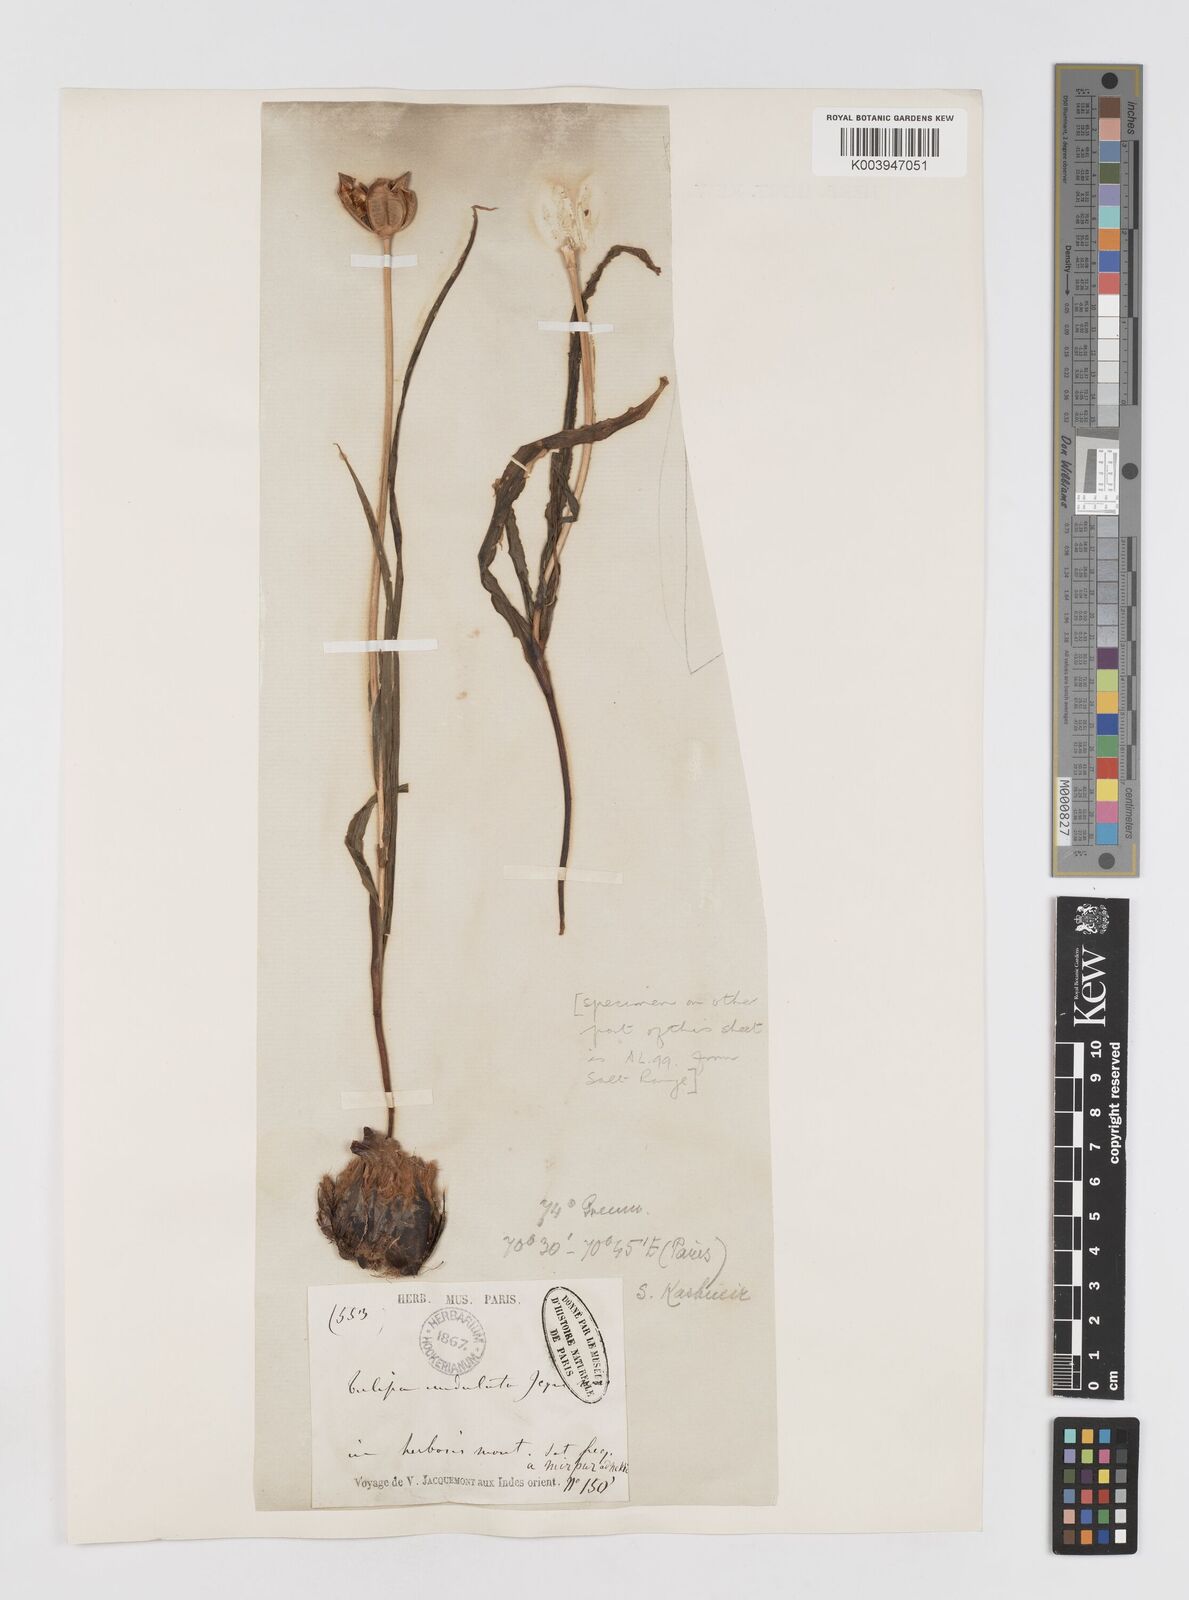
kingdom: Plantae
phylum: Tracheophyta
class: Liliopsida
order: Liliales
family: Liliaceae
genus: Tulipa
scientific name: Tulipa clusiana
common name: Lady tulip
